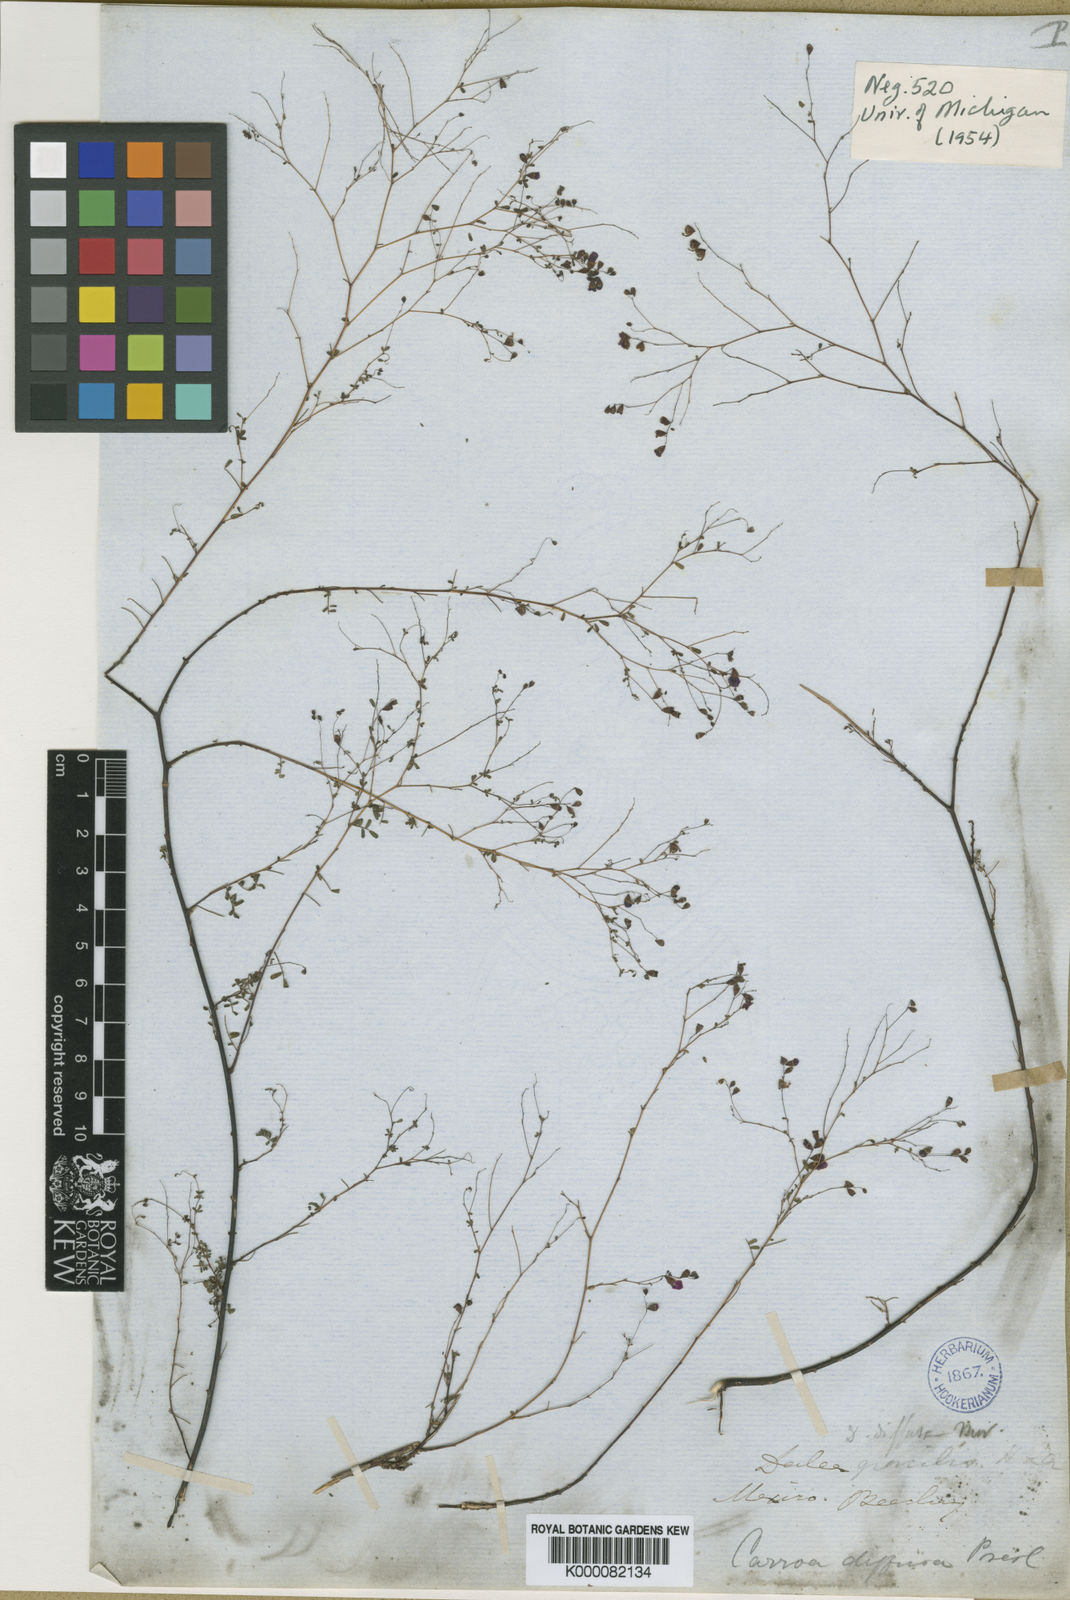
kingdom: Plantae
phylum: Tracheophyta
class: Magnoliopsida
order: Fabales
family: Fabaceae
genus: Marina
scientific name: Marina diffusa
